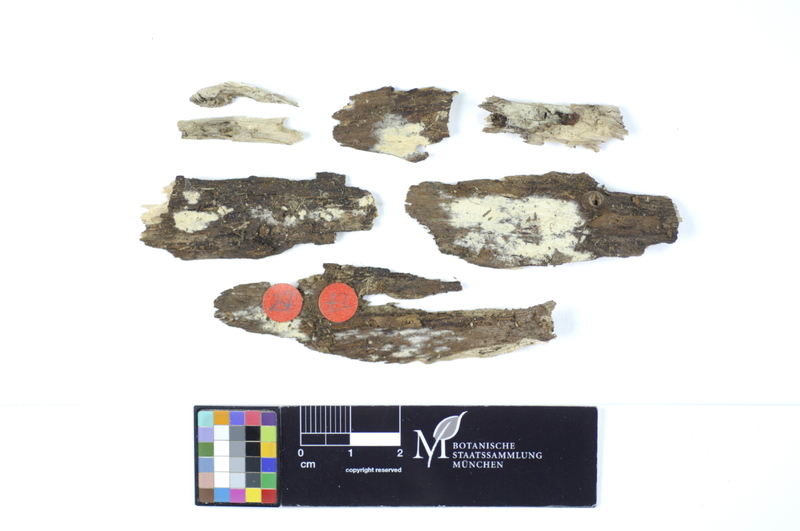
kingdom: Fungi
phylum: Basidiomycota
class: Agaricomycetes
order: Polyporales
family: Hyphodermataceae
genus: Hyphoderma
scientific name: Hyphoderma roseocremeum
